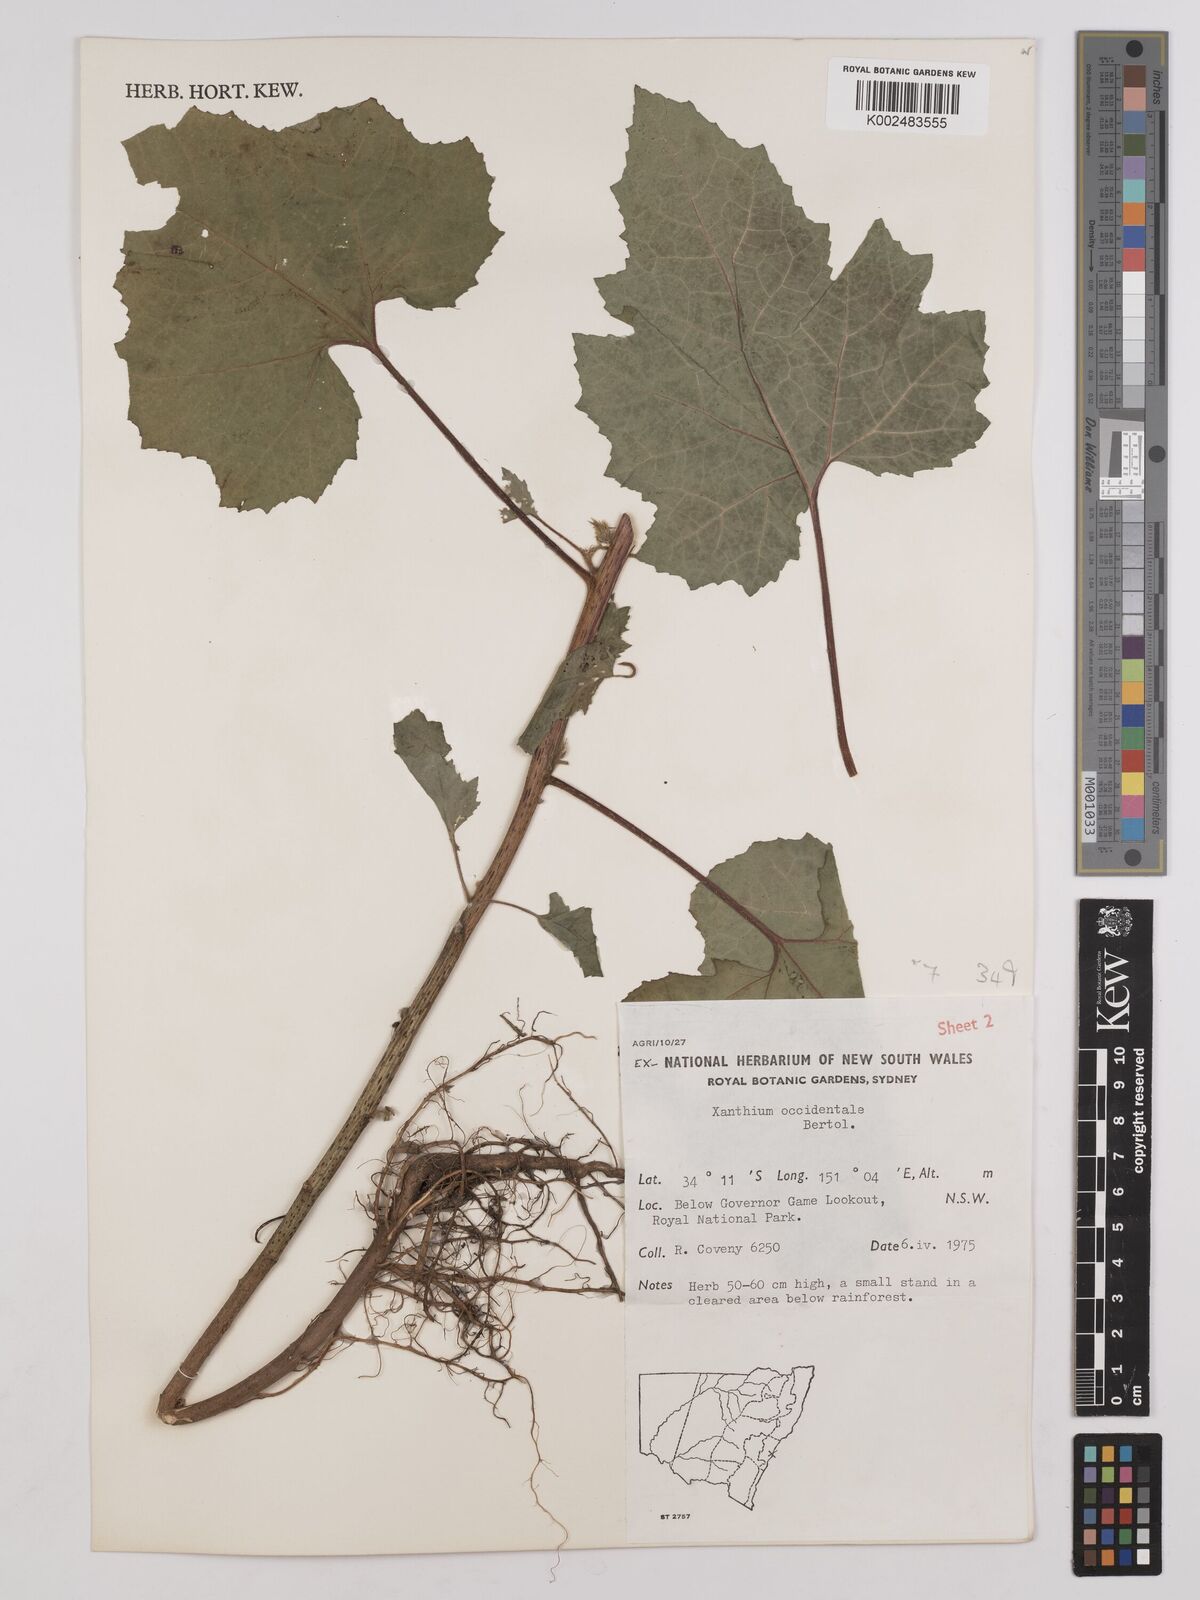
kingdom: Plantae
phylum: Tracheophyta
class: Magnoliopsida
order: Asterales
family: Asteraceae
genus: Xanthium
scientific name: Xanthium occidentale
